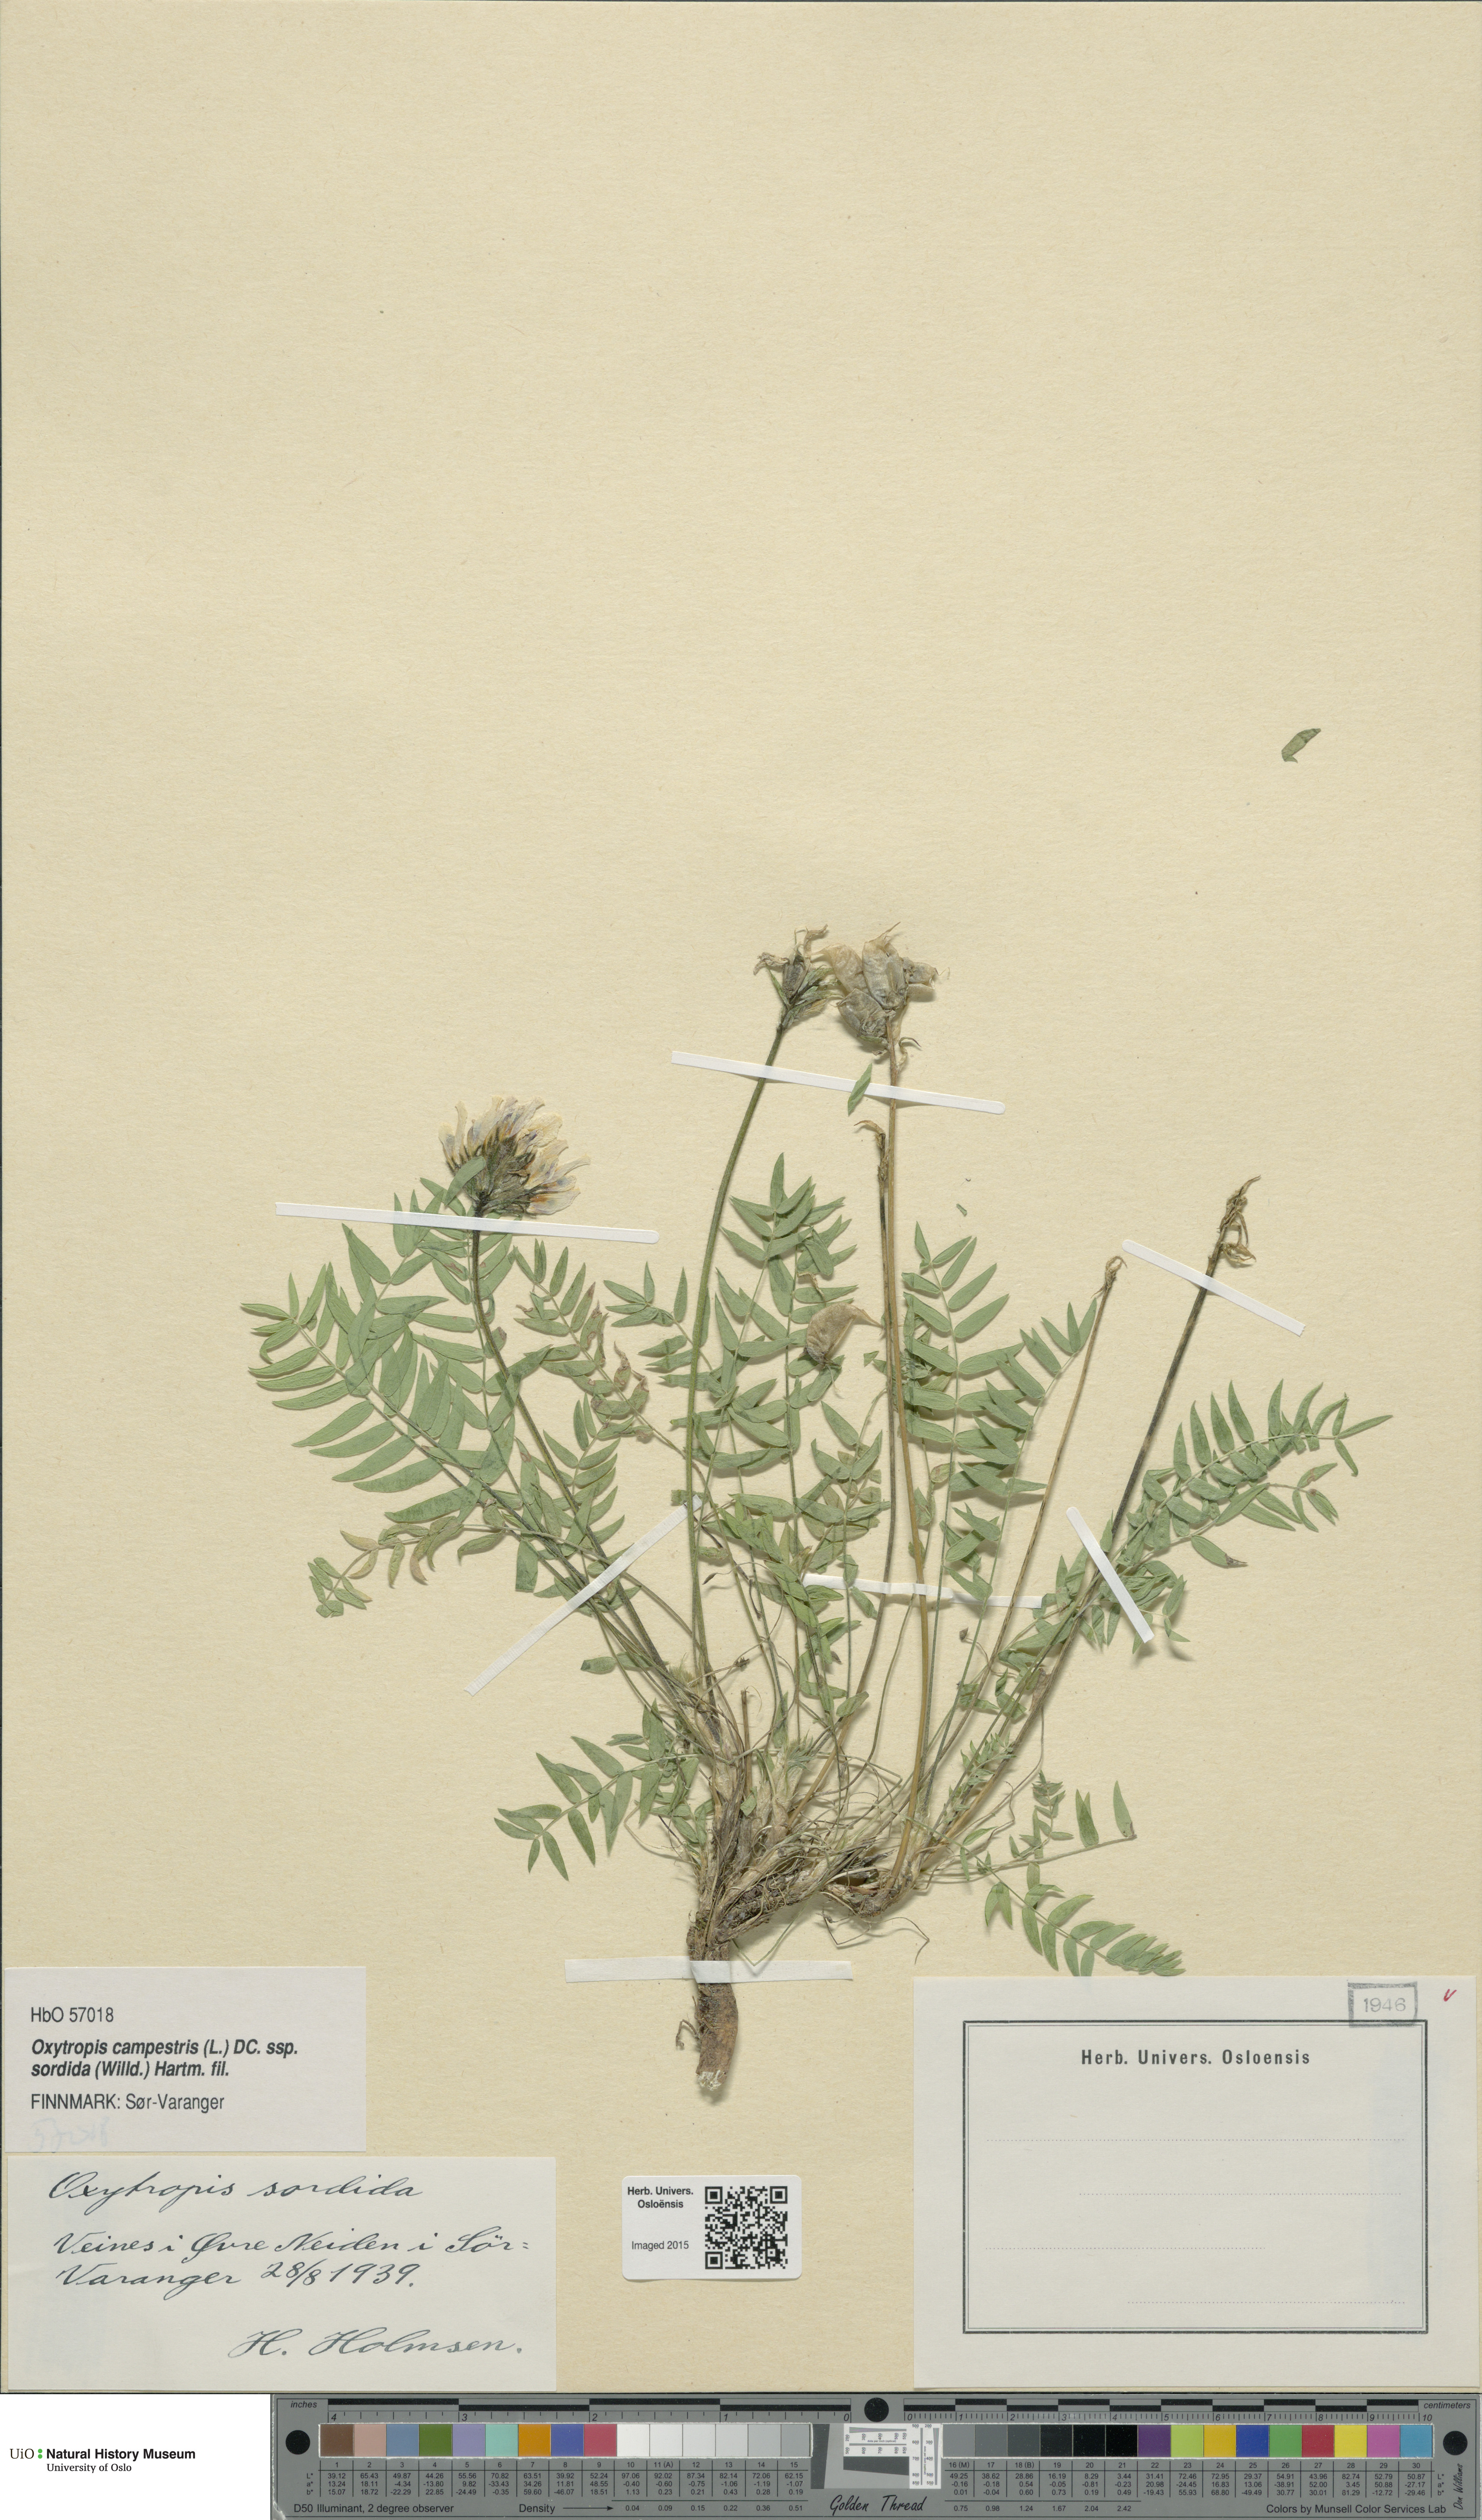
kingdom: Plantae
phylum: Tracheophyta
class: Magnoliopsida
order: Fabales
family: Fabaceae
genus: Oxytropis
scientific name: Oxytropis sordida
